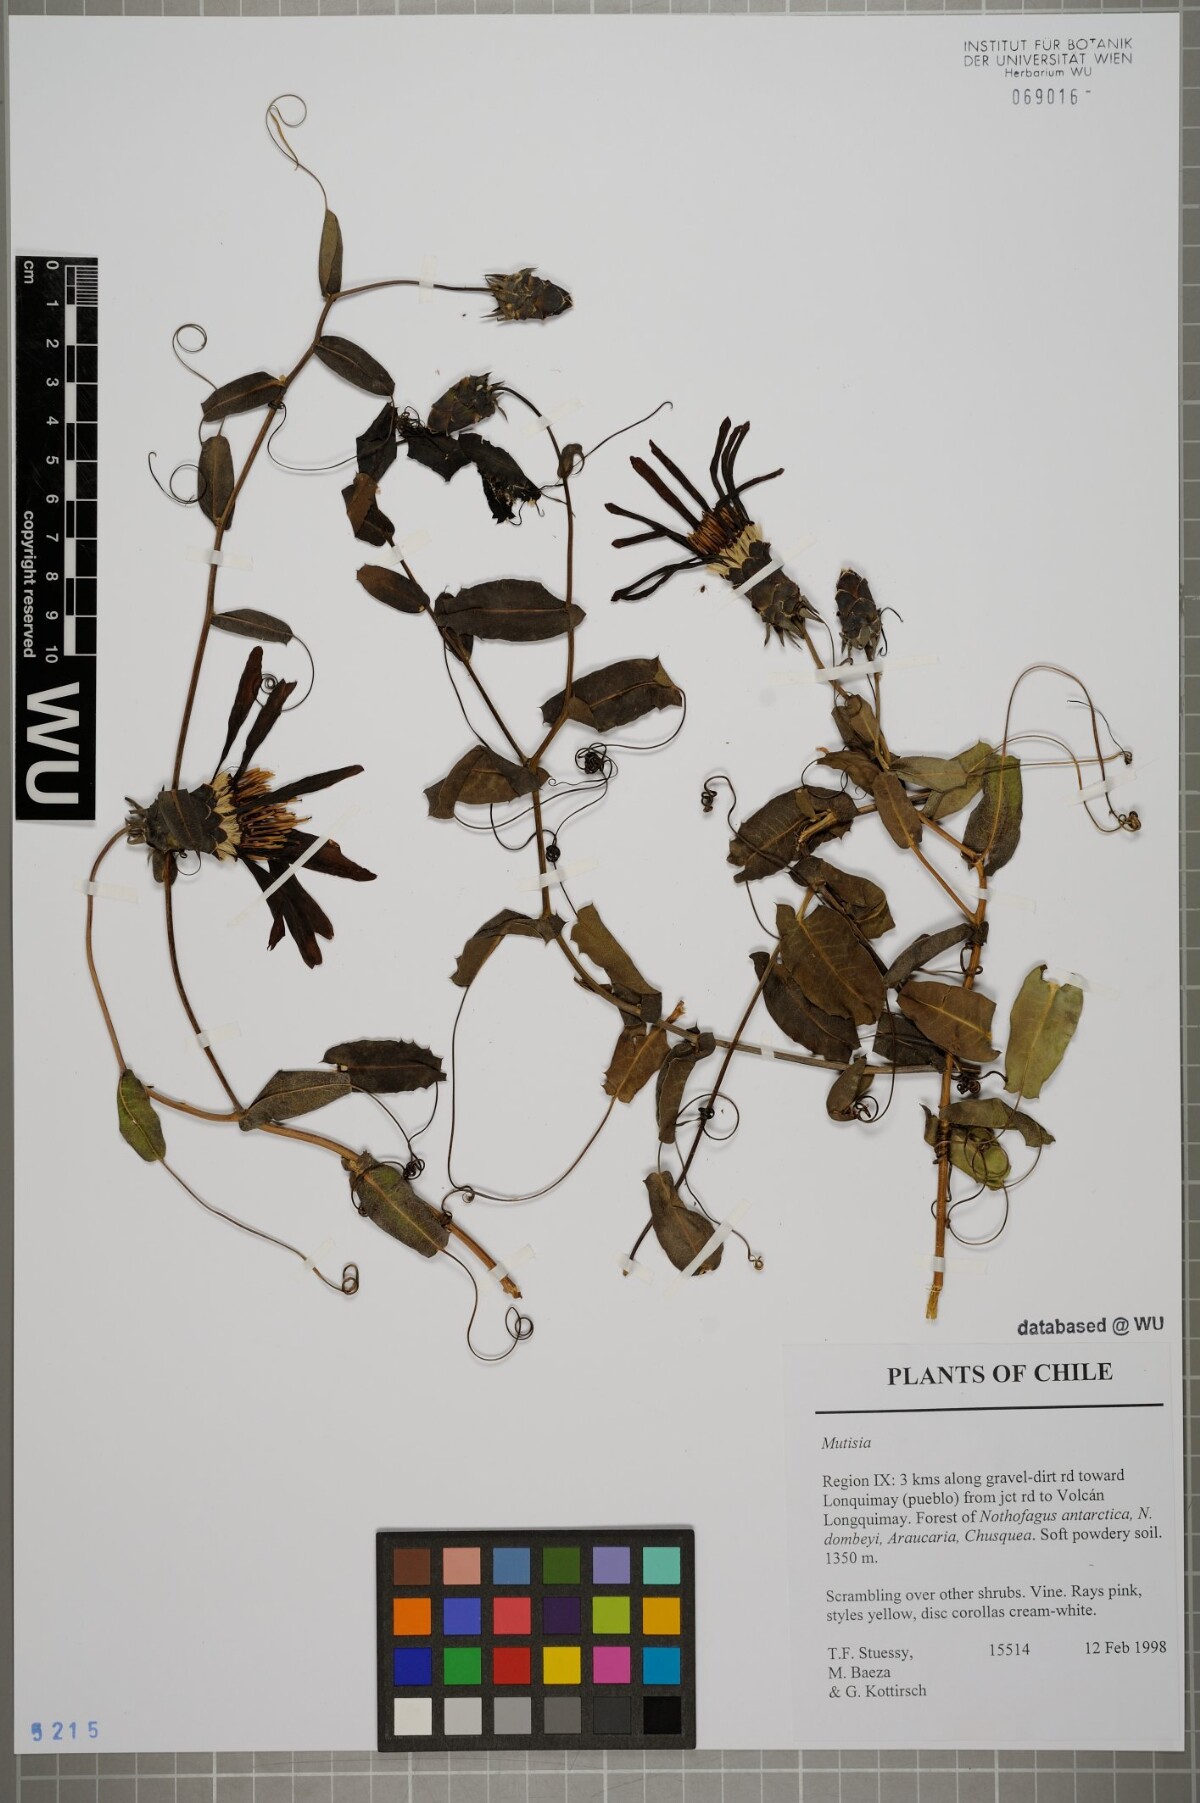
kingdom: Plantae
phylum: Tracheophyta
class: Magnoliopsida
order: Asterales
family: Asteraceae
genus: Mutisia
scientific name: Mutisia
